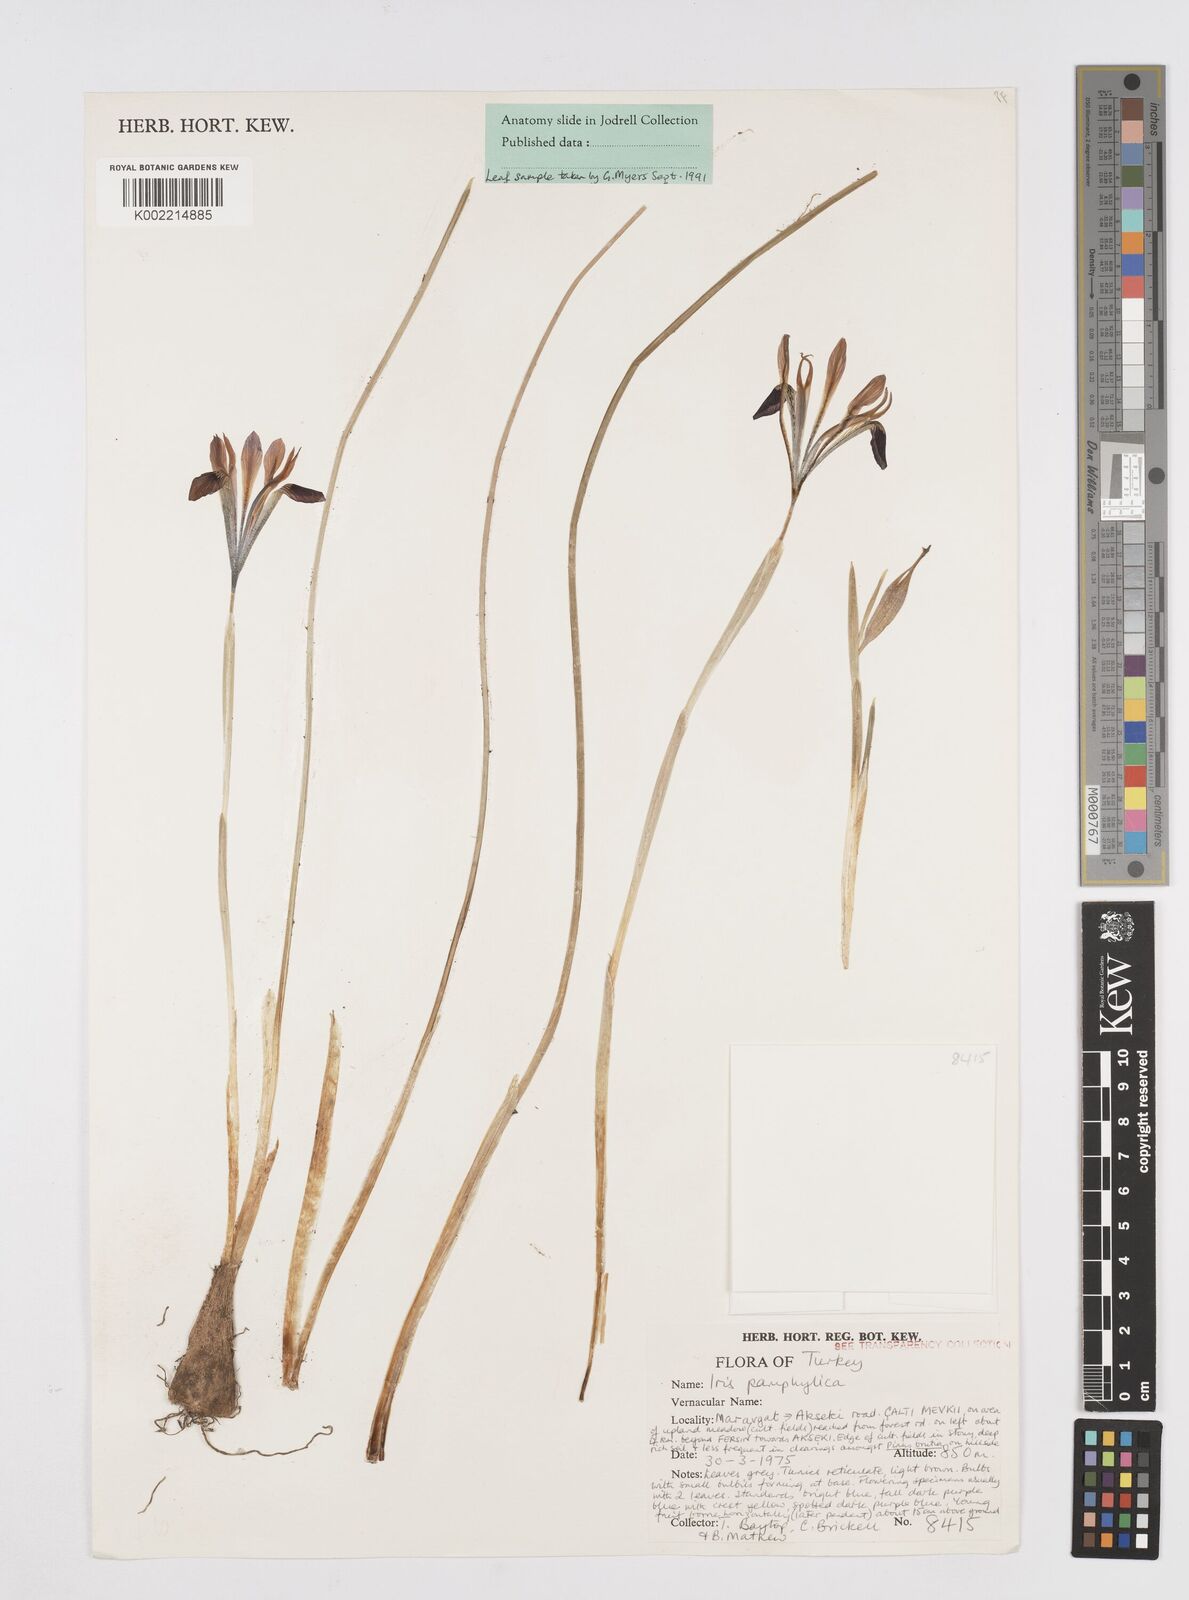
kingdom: Plantae
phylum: Tracheophyta
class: Liliopsida
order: Asparagales
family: Iridaceae
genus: Iris
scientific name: Iris pamphylica
